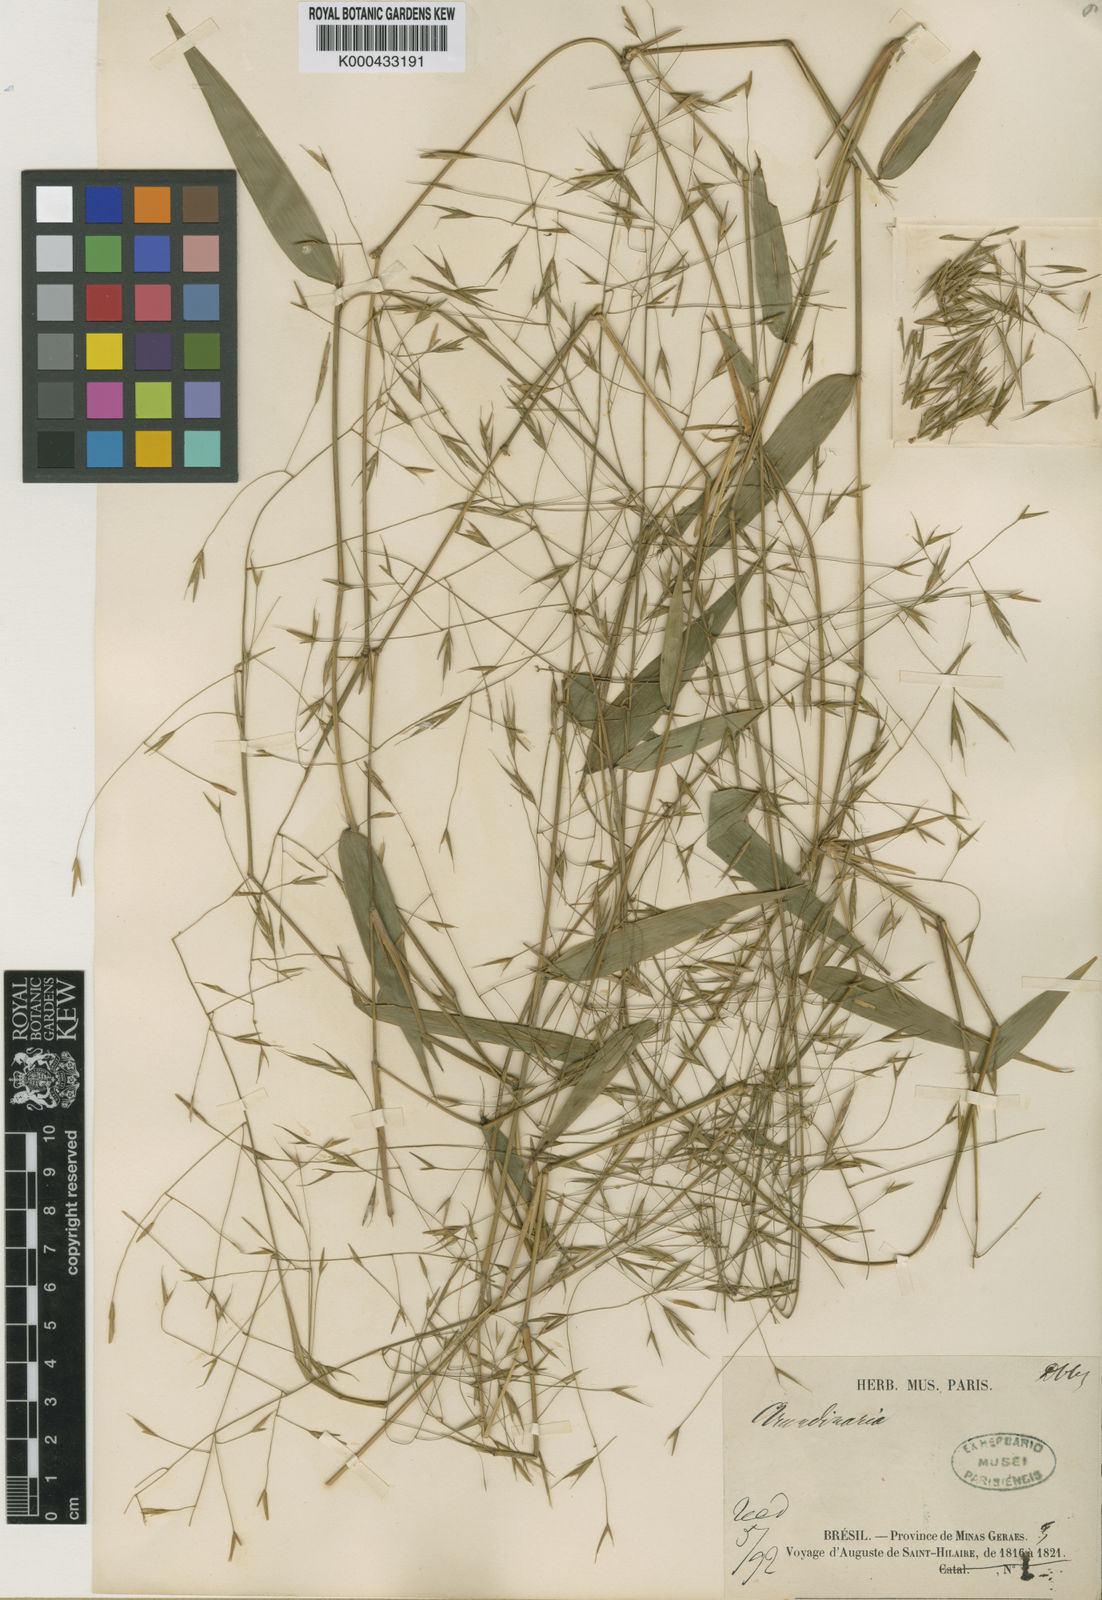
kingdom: Plantae
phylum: Tracheophyta
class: Liliopsida
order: Poales
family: Poaceae
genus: Aulonemia
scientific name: Aulonemia aristulata
